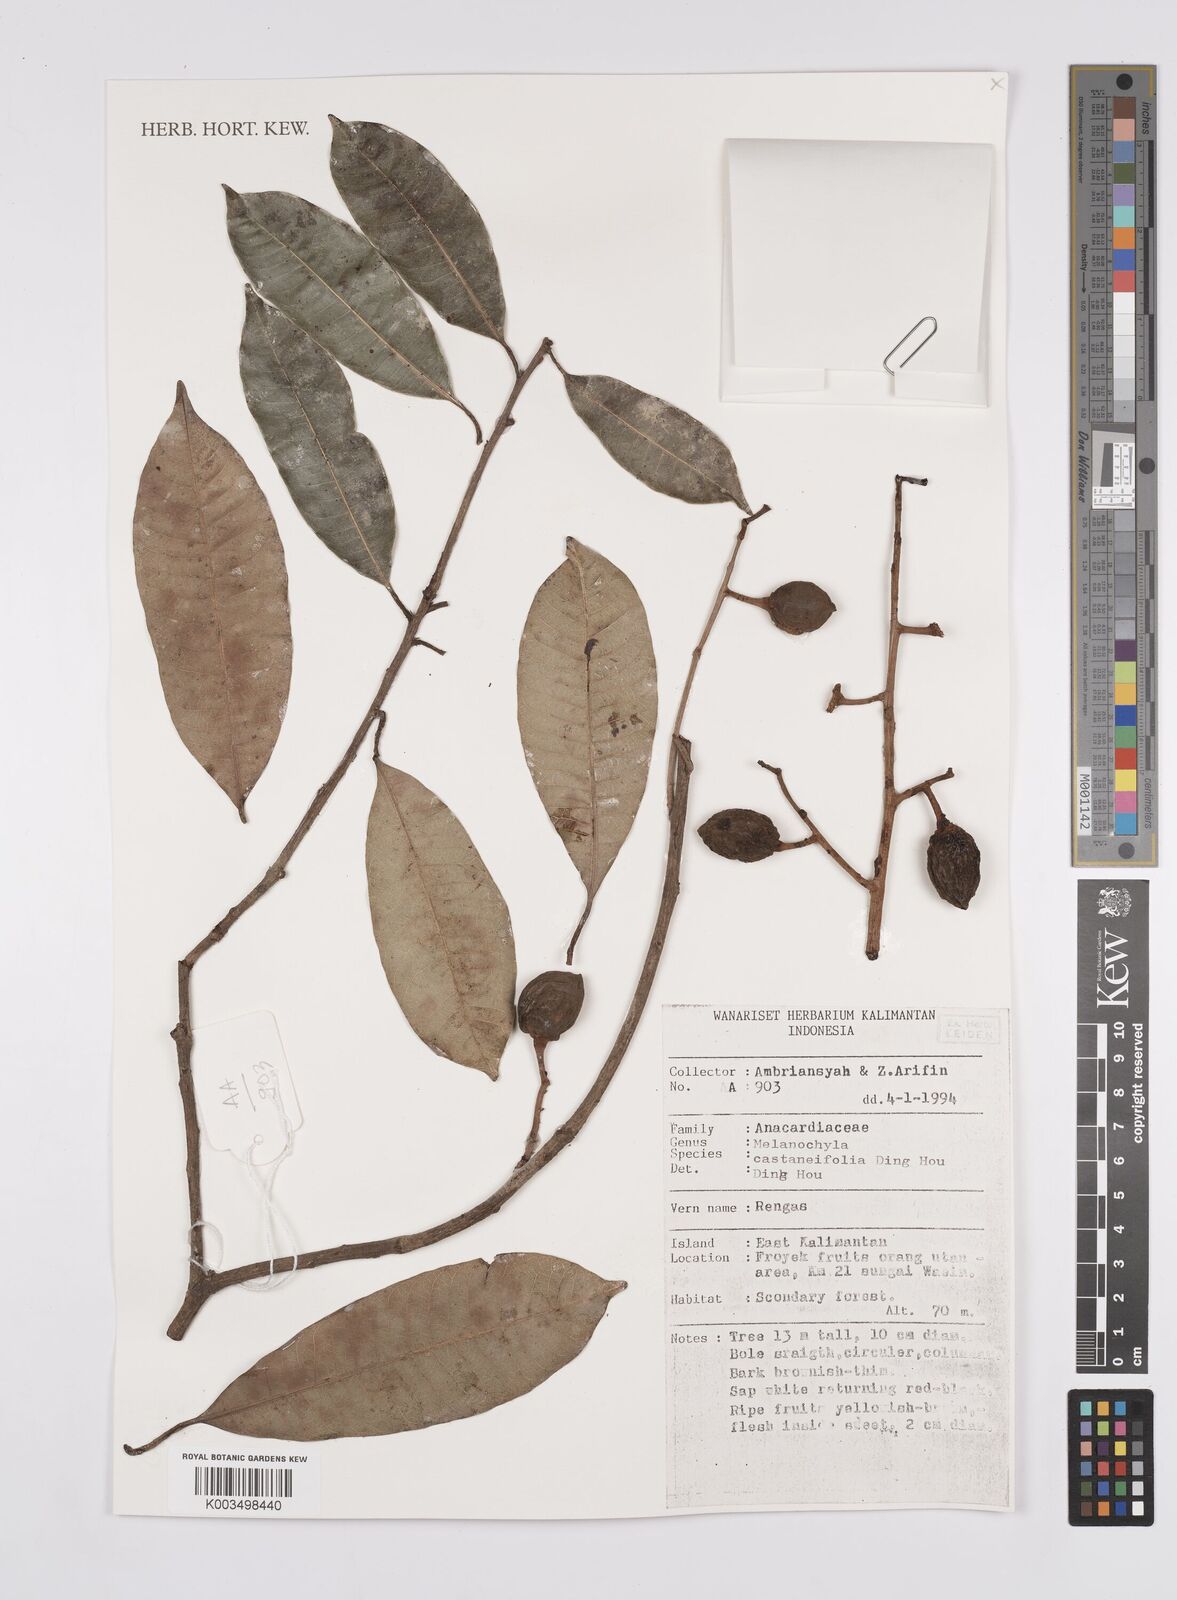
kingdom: Plantae
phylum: Tracheophyta
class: Magnoliopsida
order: Sapindales
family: Anacardiaceae
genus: Melanochyla
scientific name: Melanochyla castaneifolia
